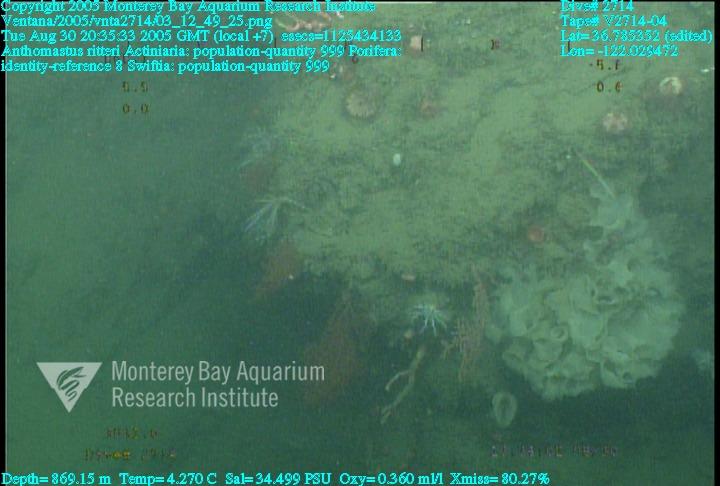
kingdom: Animalia
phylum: Porifera
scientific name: Porifera
